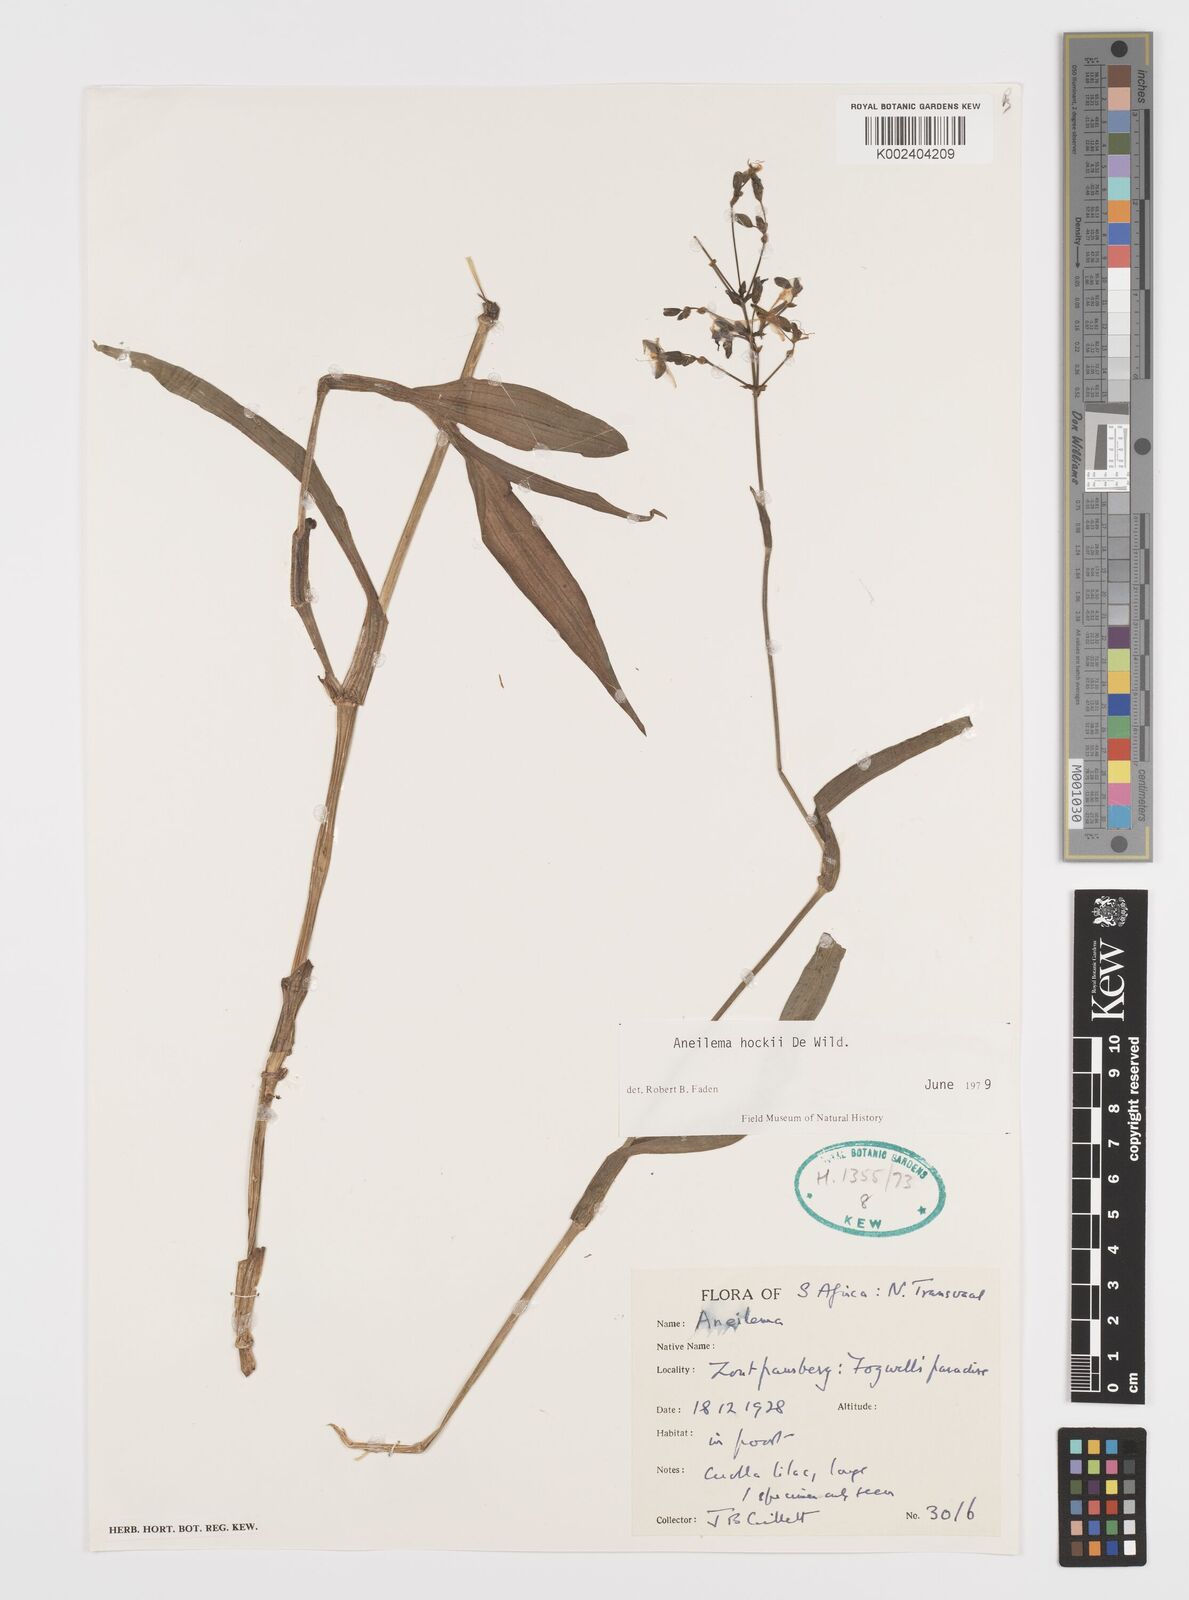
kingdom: Plantae
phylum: Tracheophyta
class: Liliopsida
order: Commelinales
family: Commelinaceae
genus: Aneilema
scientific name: Aneilema hockii
